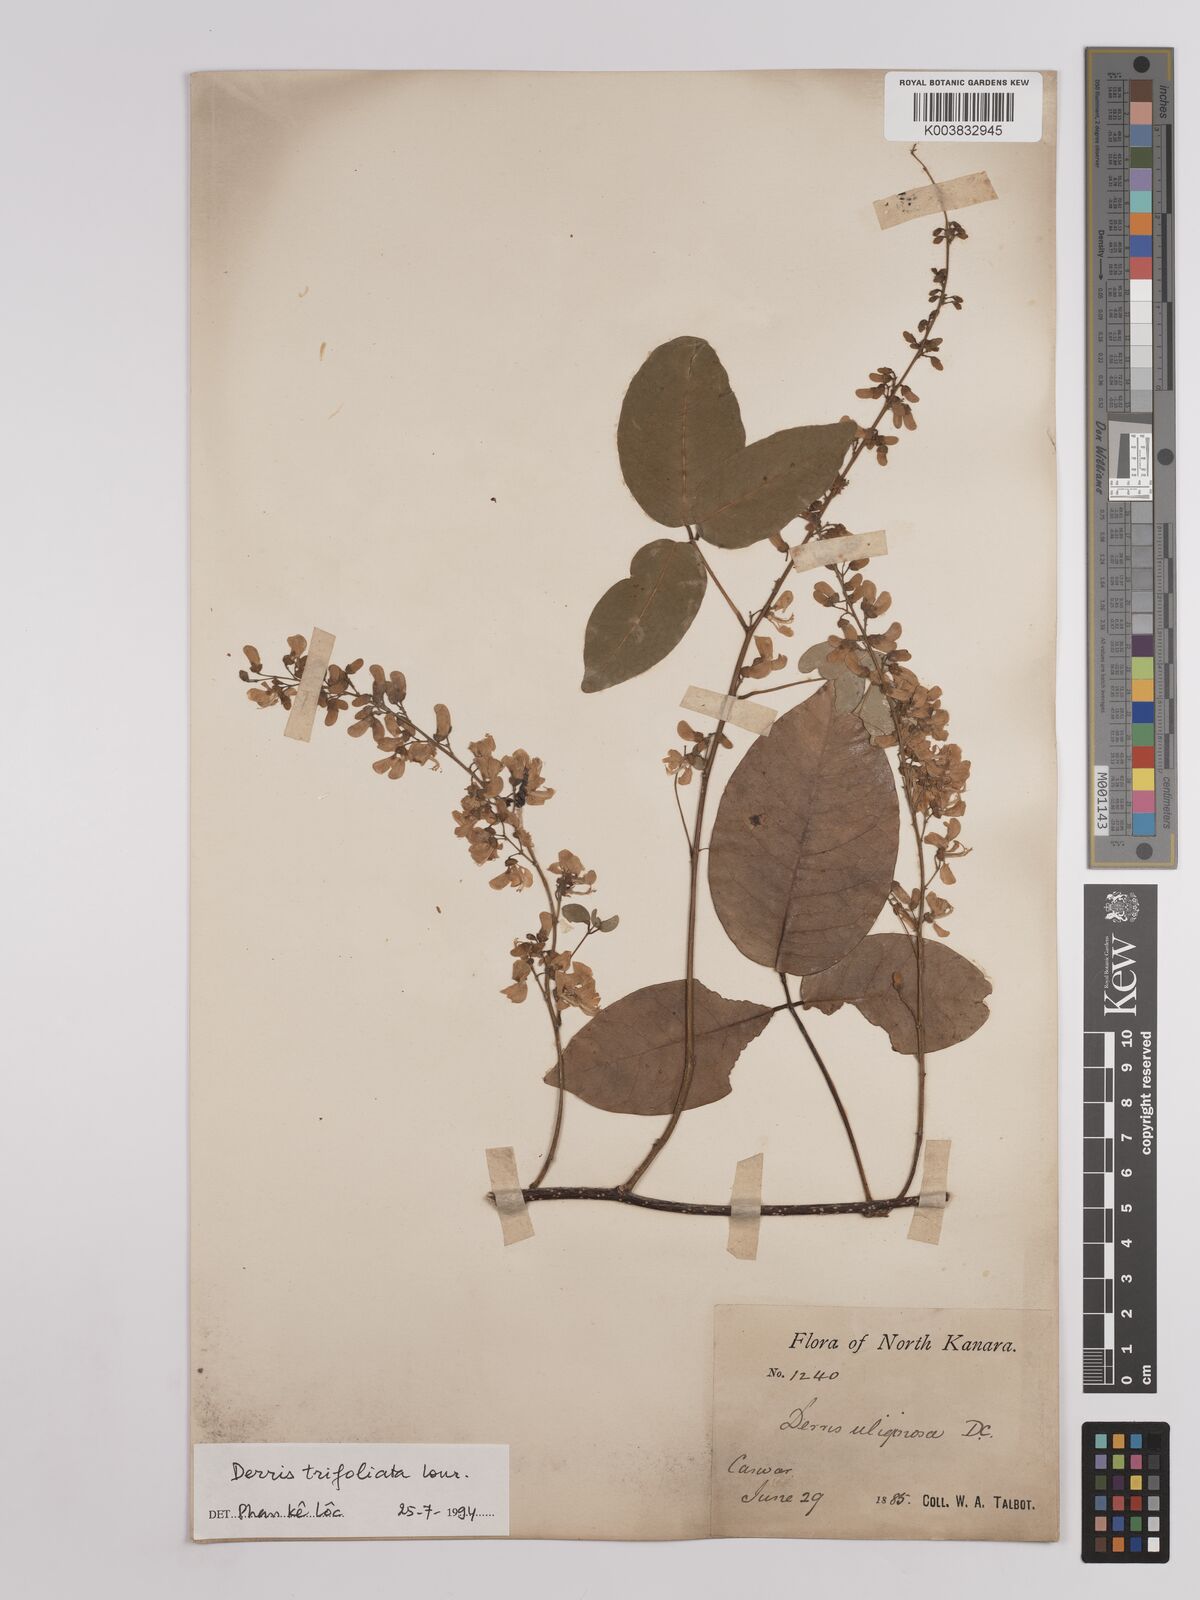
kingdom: Plantae
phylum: Tracheophyta
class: Magnoliopsida
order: Fabales
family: Fabaceae
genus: Derris
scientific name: Derris trifoliata
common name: Three-leaf derris
